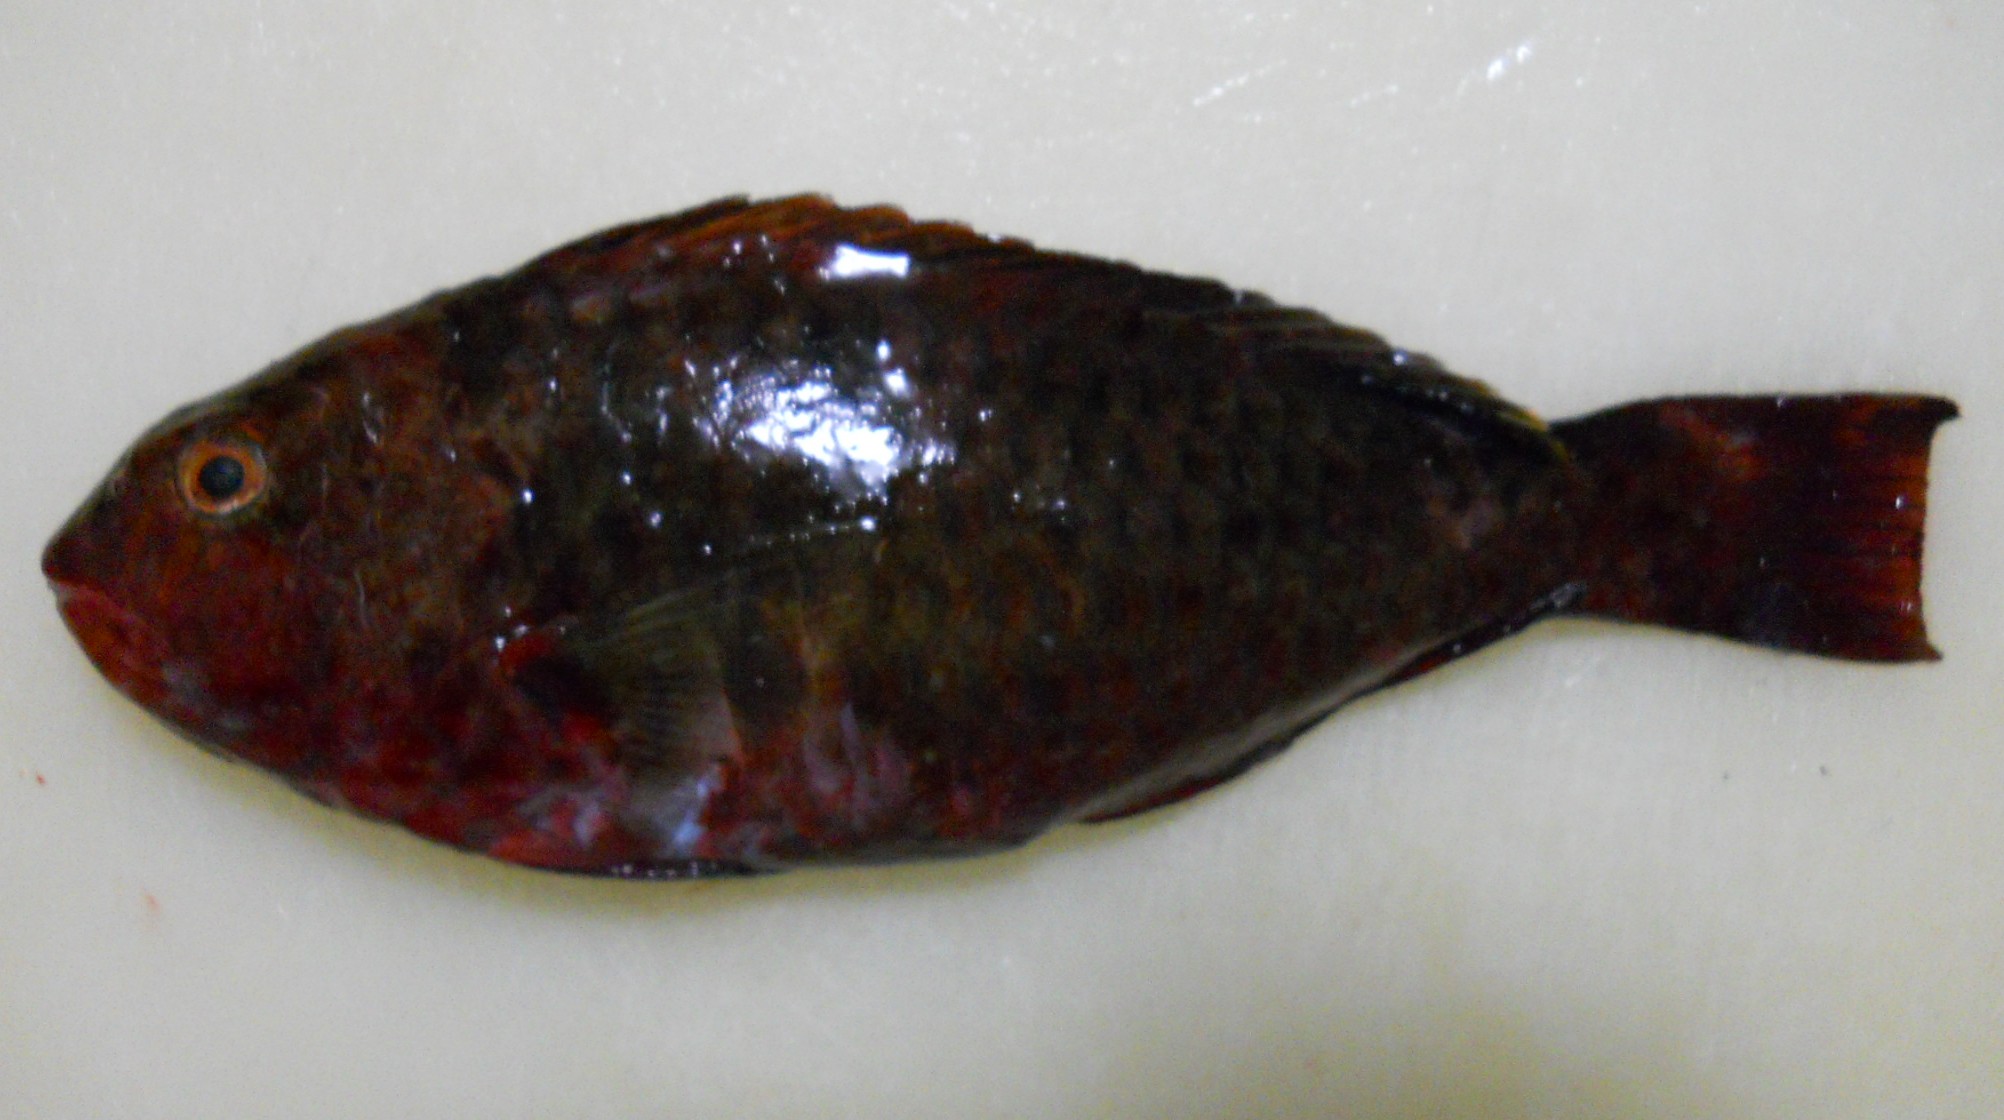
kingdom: Animalia
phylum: Chordata
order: Perciformes
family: Scaridae
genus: Calotomus
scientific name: Calotomus carolinus
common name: Bucktooth
